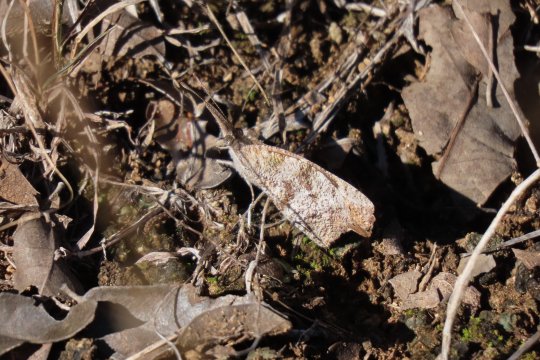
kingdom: Animalia
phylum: Arthropoda
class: Insecta
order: Lepidoptera
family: Nymphalidae
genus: Libytheana
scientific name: Libytheana carinenta
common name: American Snout
